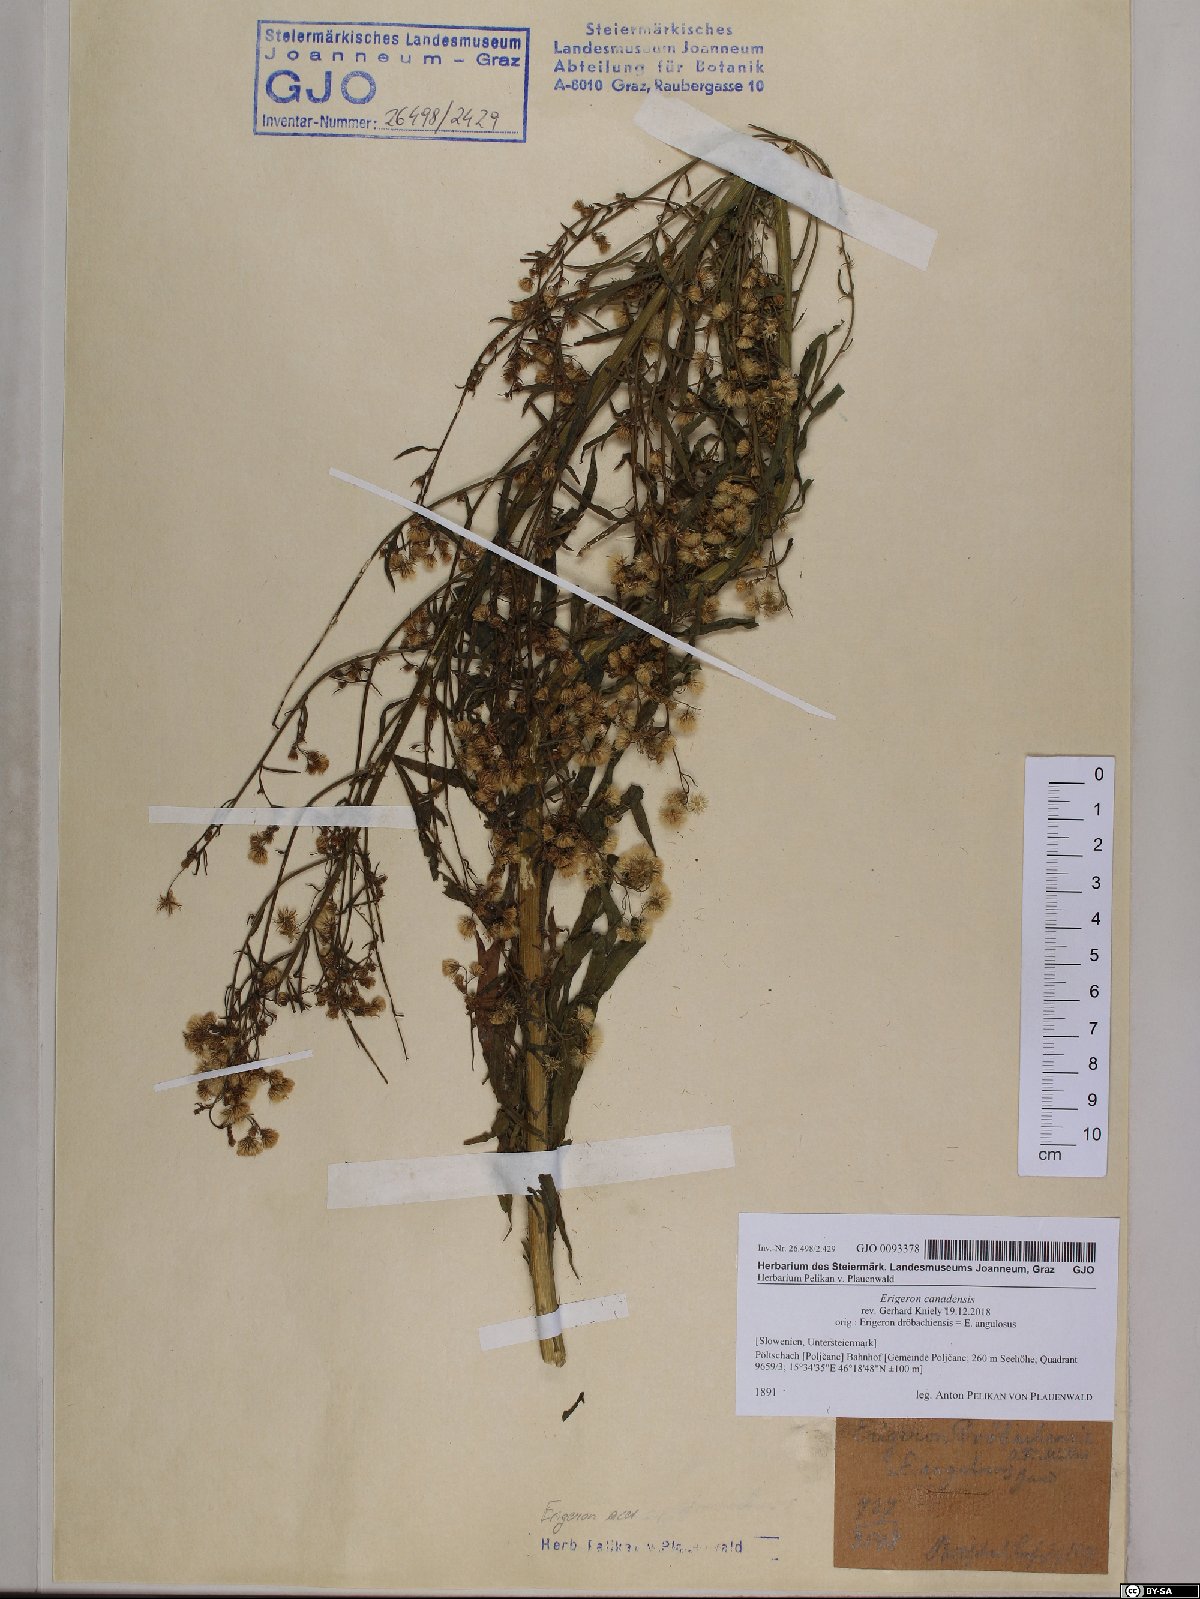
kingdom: Plantae
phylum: Tracheophyta
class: Magnoliopsida
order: Asterales
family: Asteraceae
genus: Erigeron
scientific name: Erigeron canadensis
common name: Canadian fleabane
